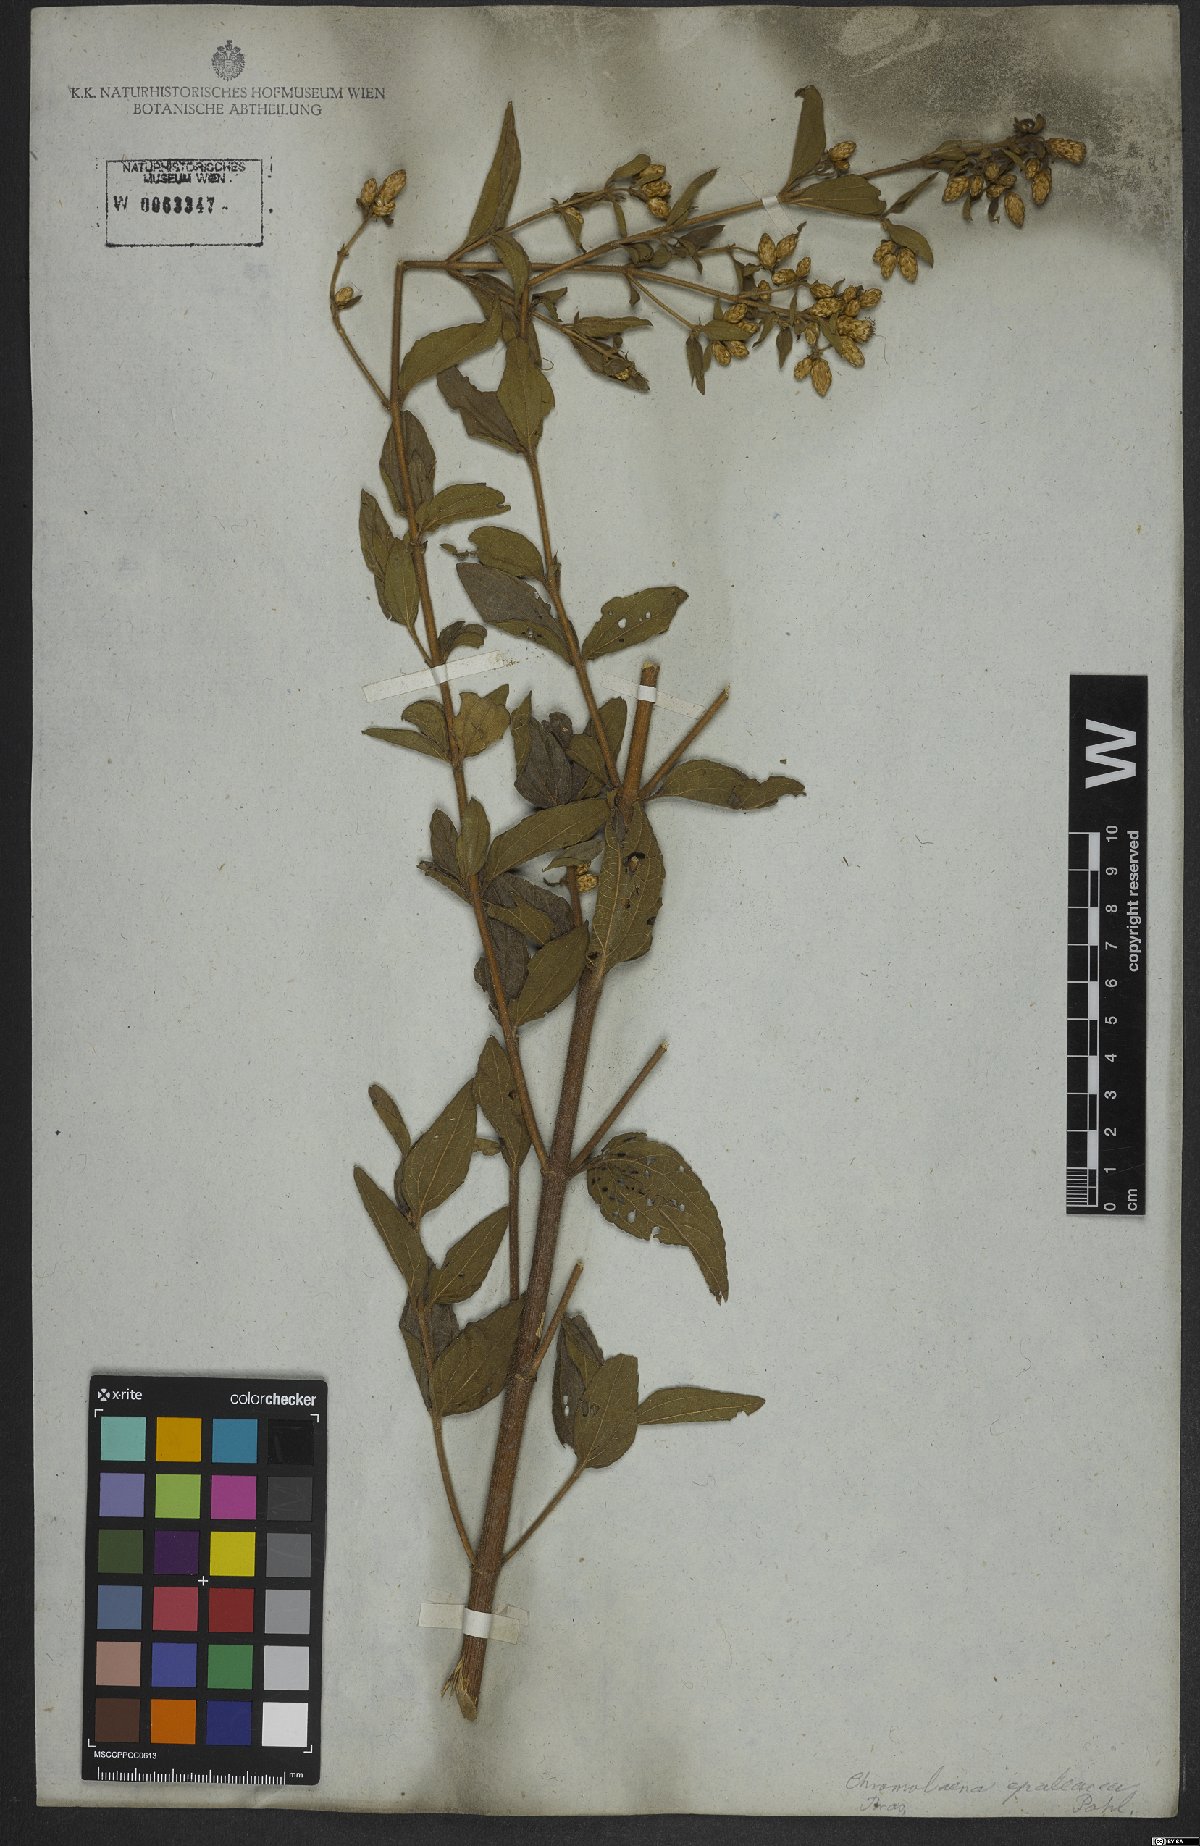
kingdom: Plantae
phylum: Tracheophyta
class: Magnoliopsida
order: Asterales
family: Asteraceae
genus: Chromolaena
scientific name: Chromolaena epaleacea
